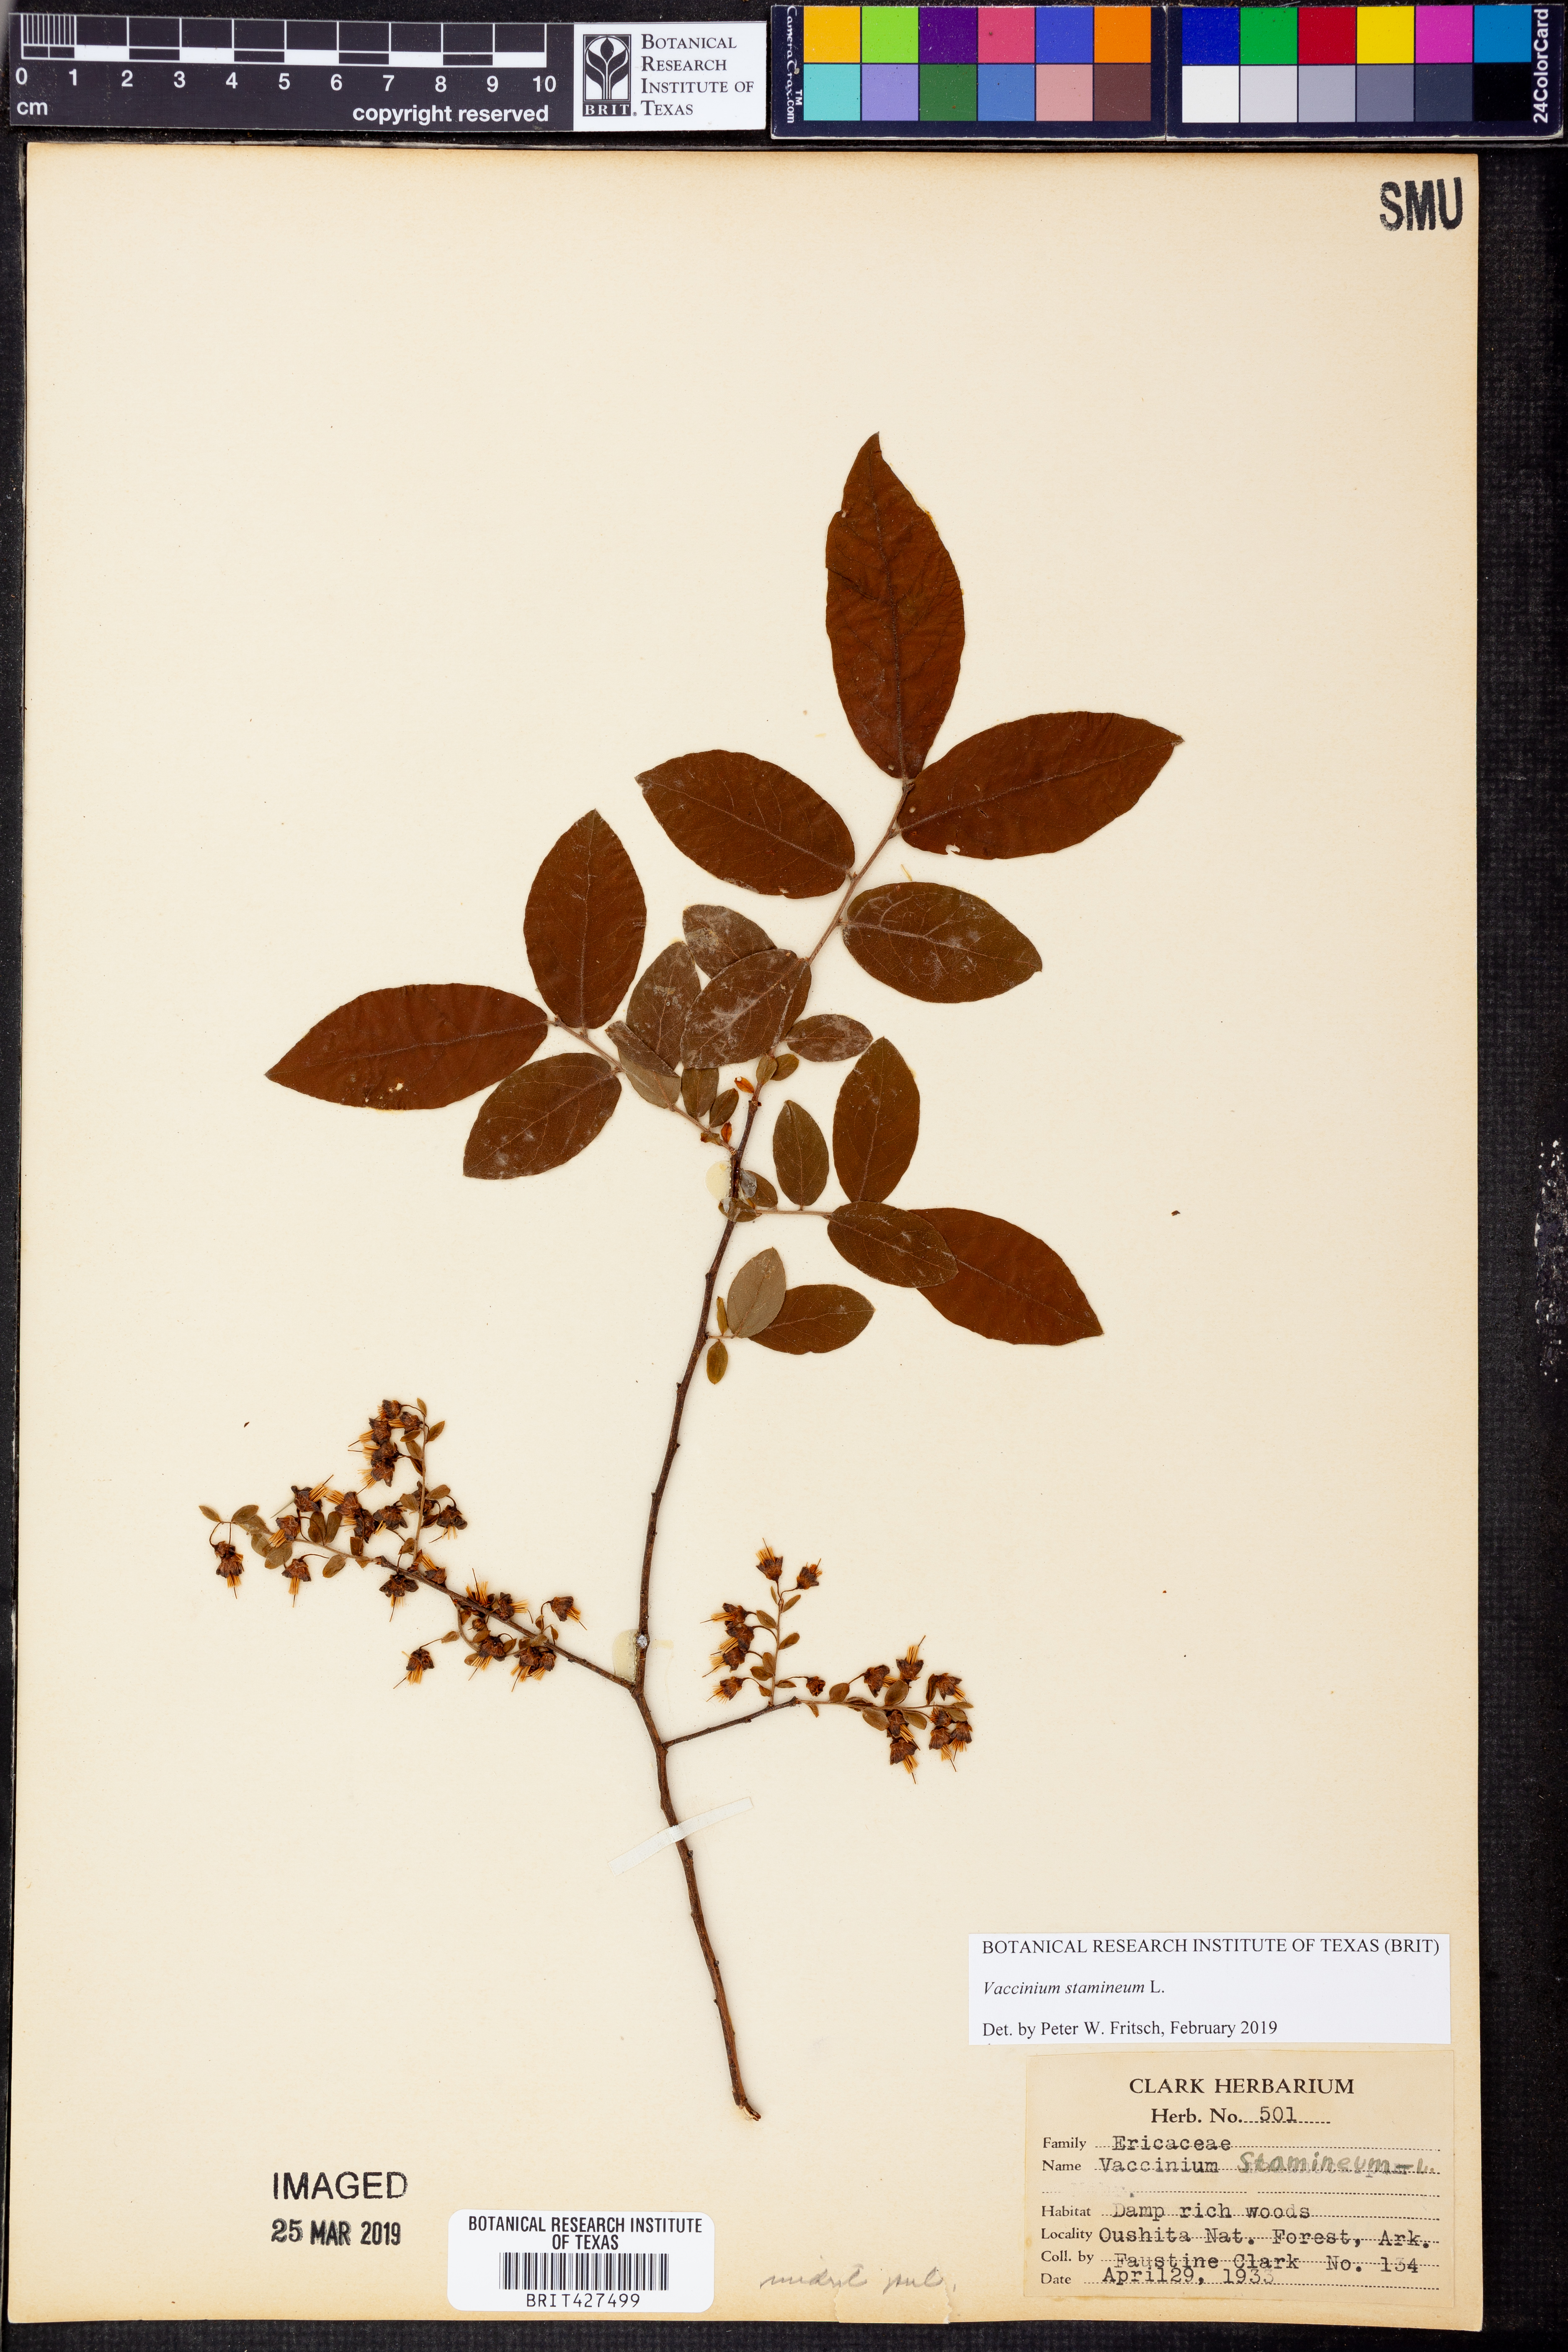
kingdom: Plantae
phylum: Tracheophyta
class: Magnoliopsida
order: Ericales
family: Ericaceae
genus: Vaccinium
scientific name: Vaccinium stamineum
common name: Deerberry
